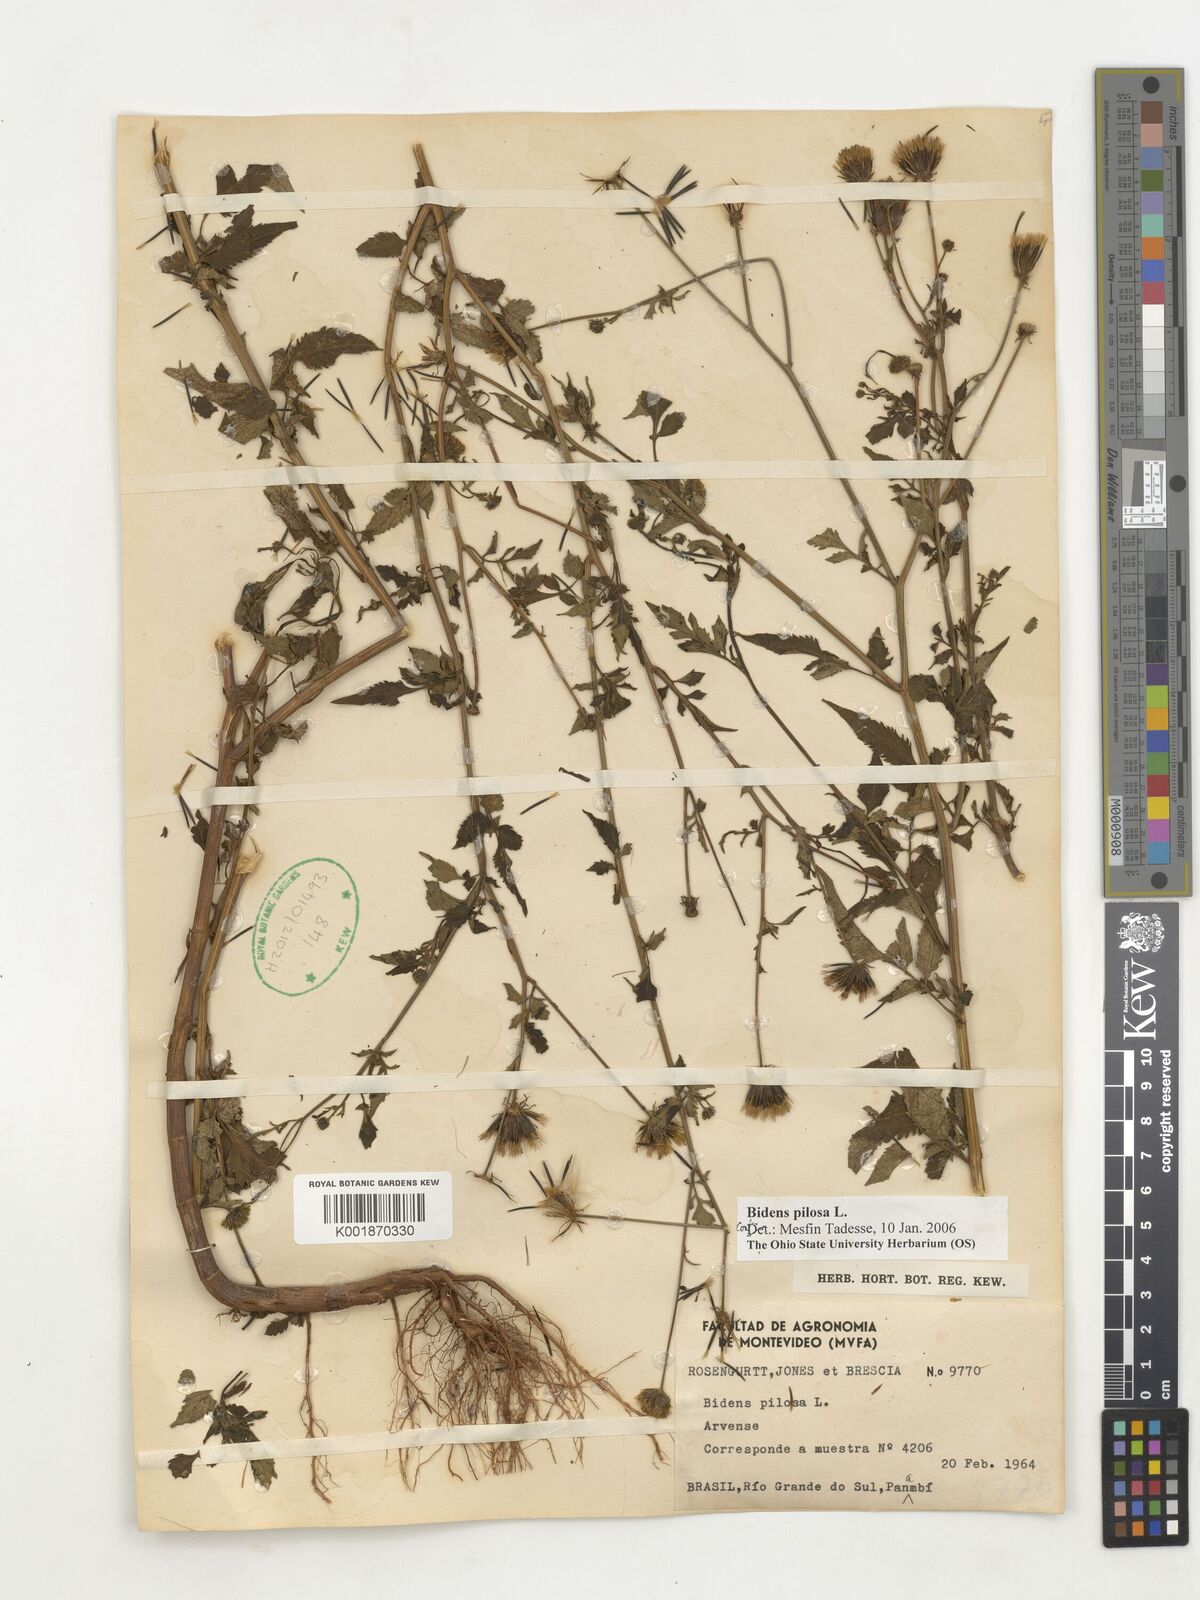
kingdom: Plantae
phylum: Tracheophyta
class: Magnoliopsida
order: Asterales
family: Asteraceae
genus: Bidens
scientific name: Bidens pilosa
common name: Black-jack
